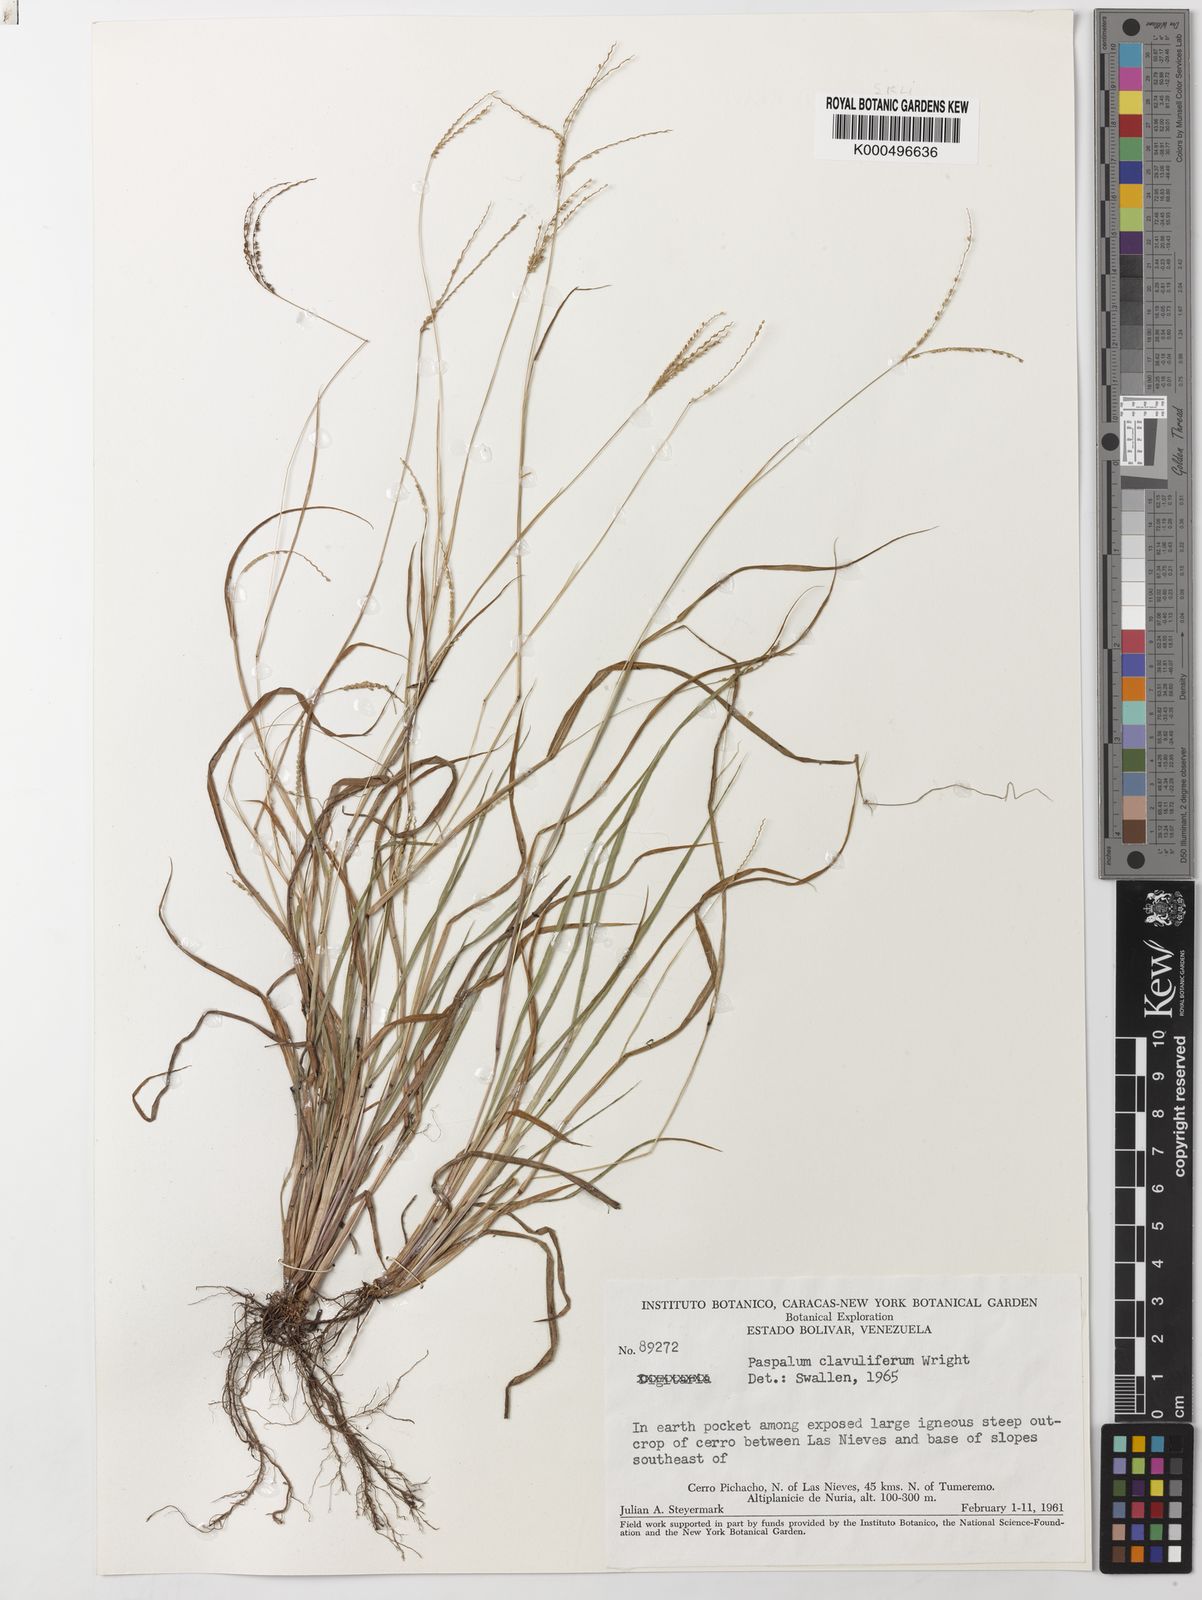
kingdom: Plantae
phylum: Tracheophyta
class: Liliopsida
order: Poales
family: Poaceae
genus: Paspalum
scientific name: Paspalum clavuliferum
